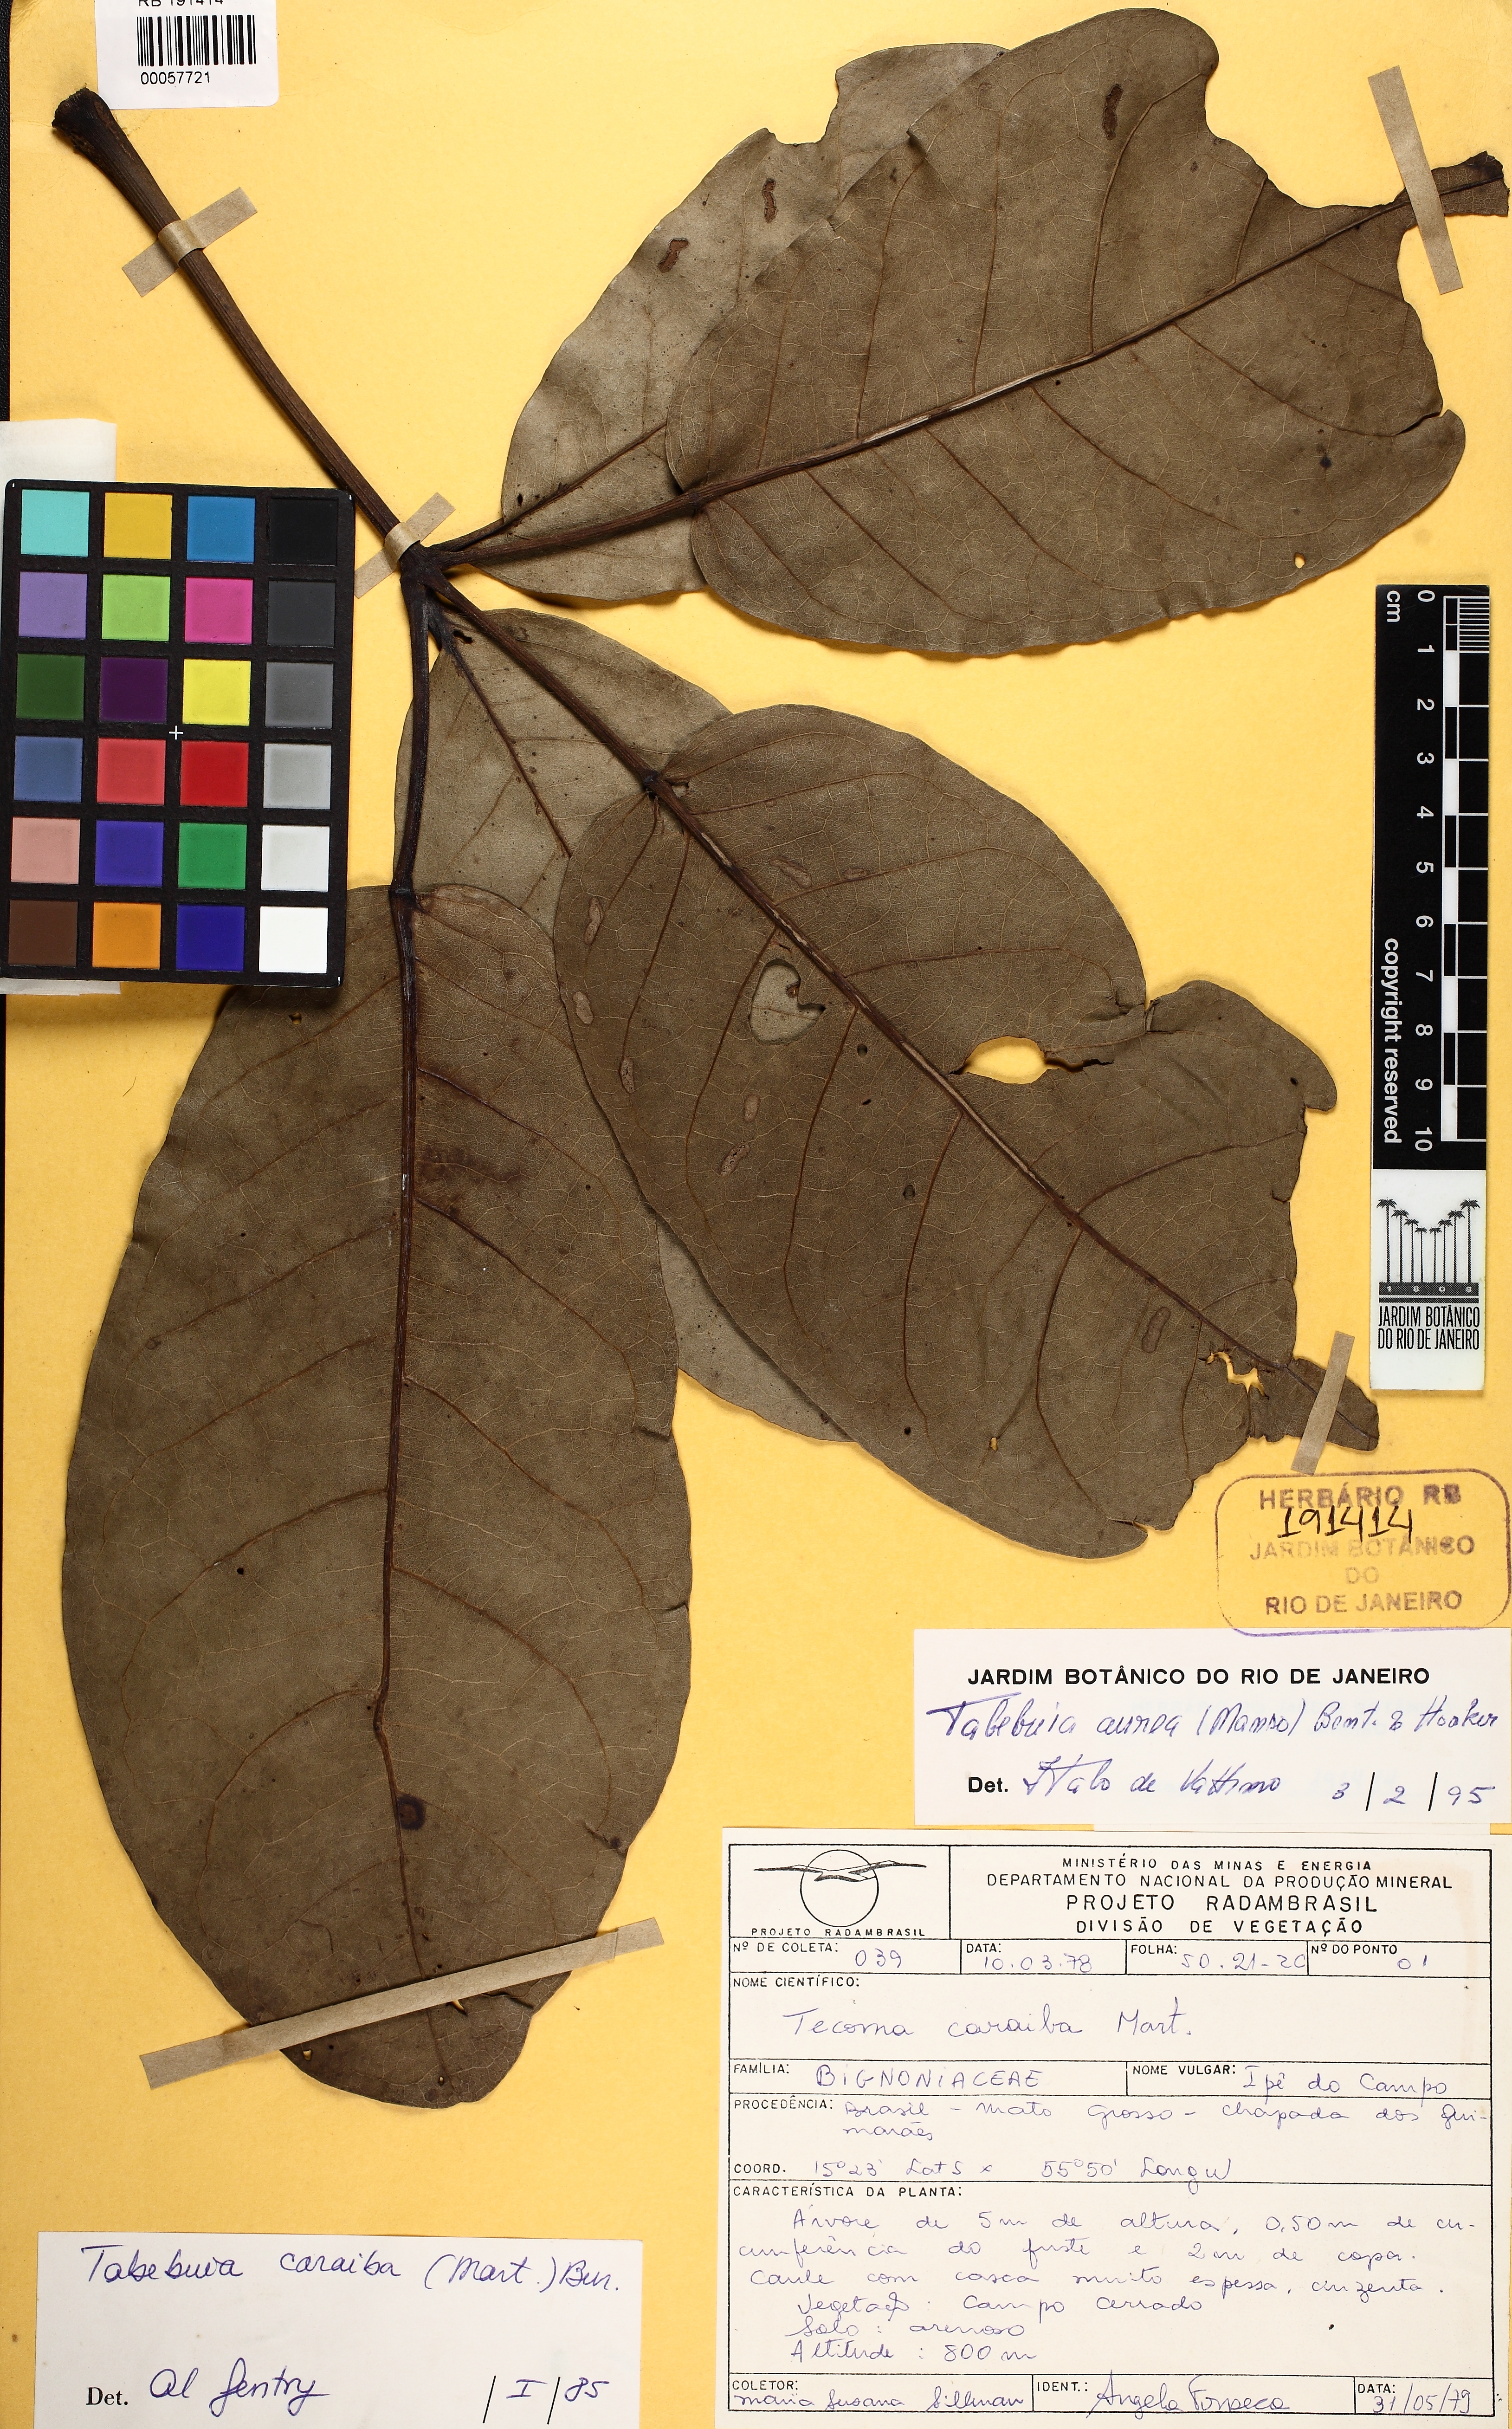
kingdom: Plantae
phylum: Tracheophyta
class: Magnoliopsida
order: Lamiales
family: Bignoniaceae
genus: Tabebuia
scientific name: Tabebuia aurea
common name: Caribbean trumpet-tree
